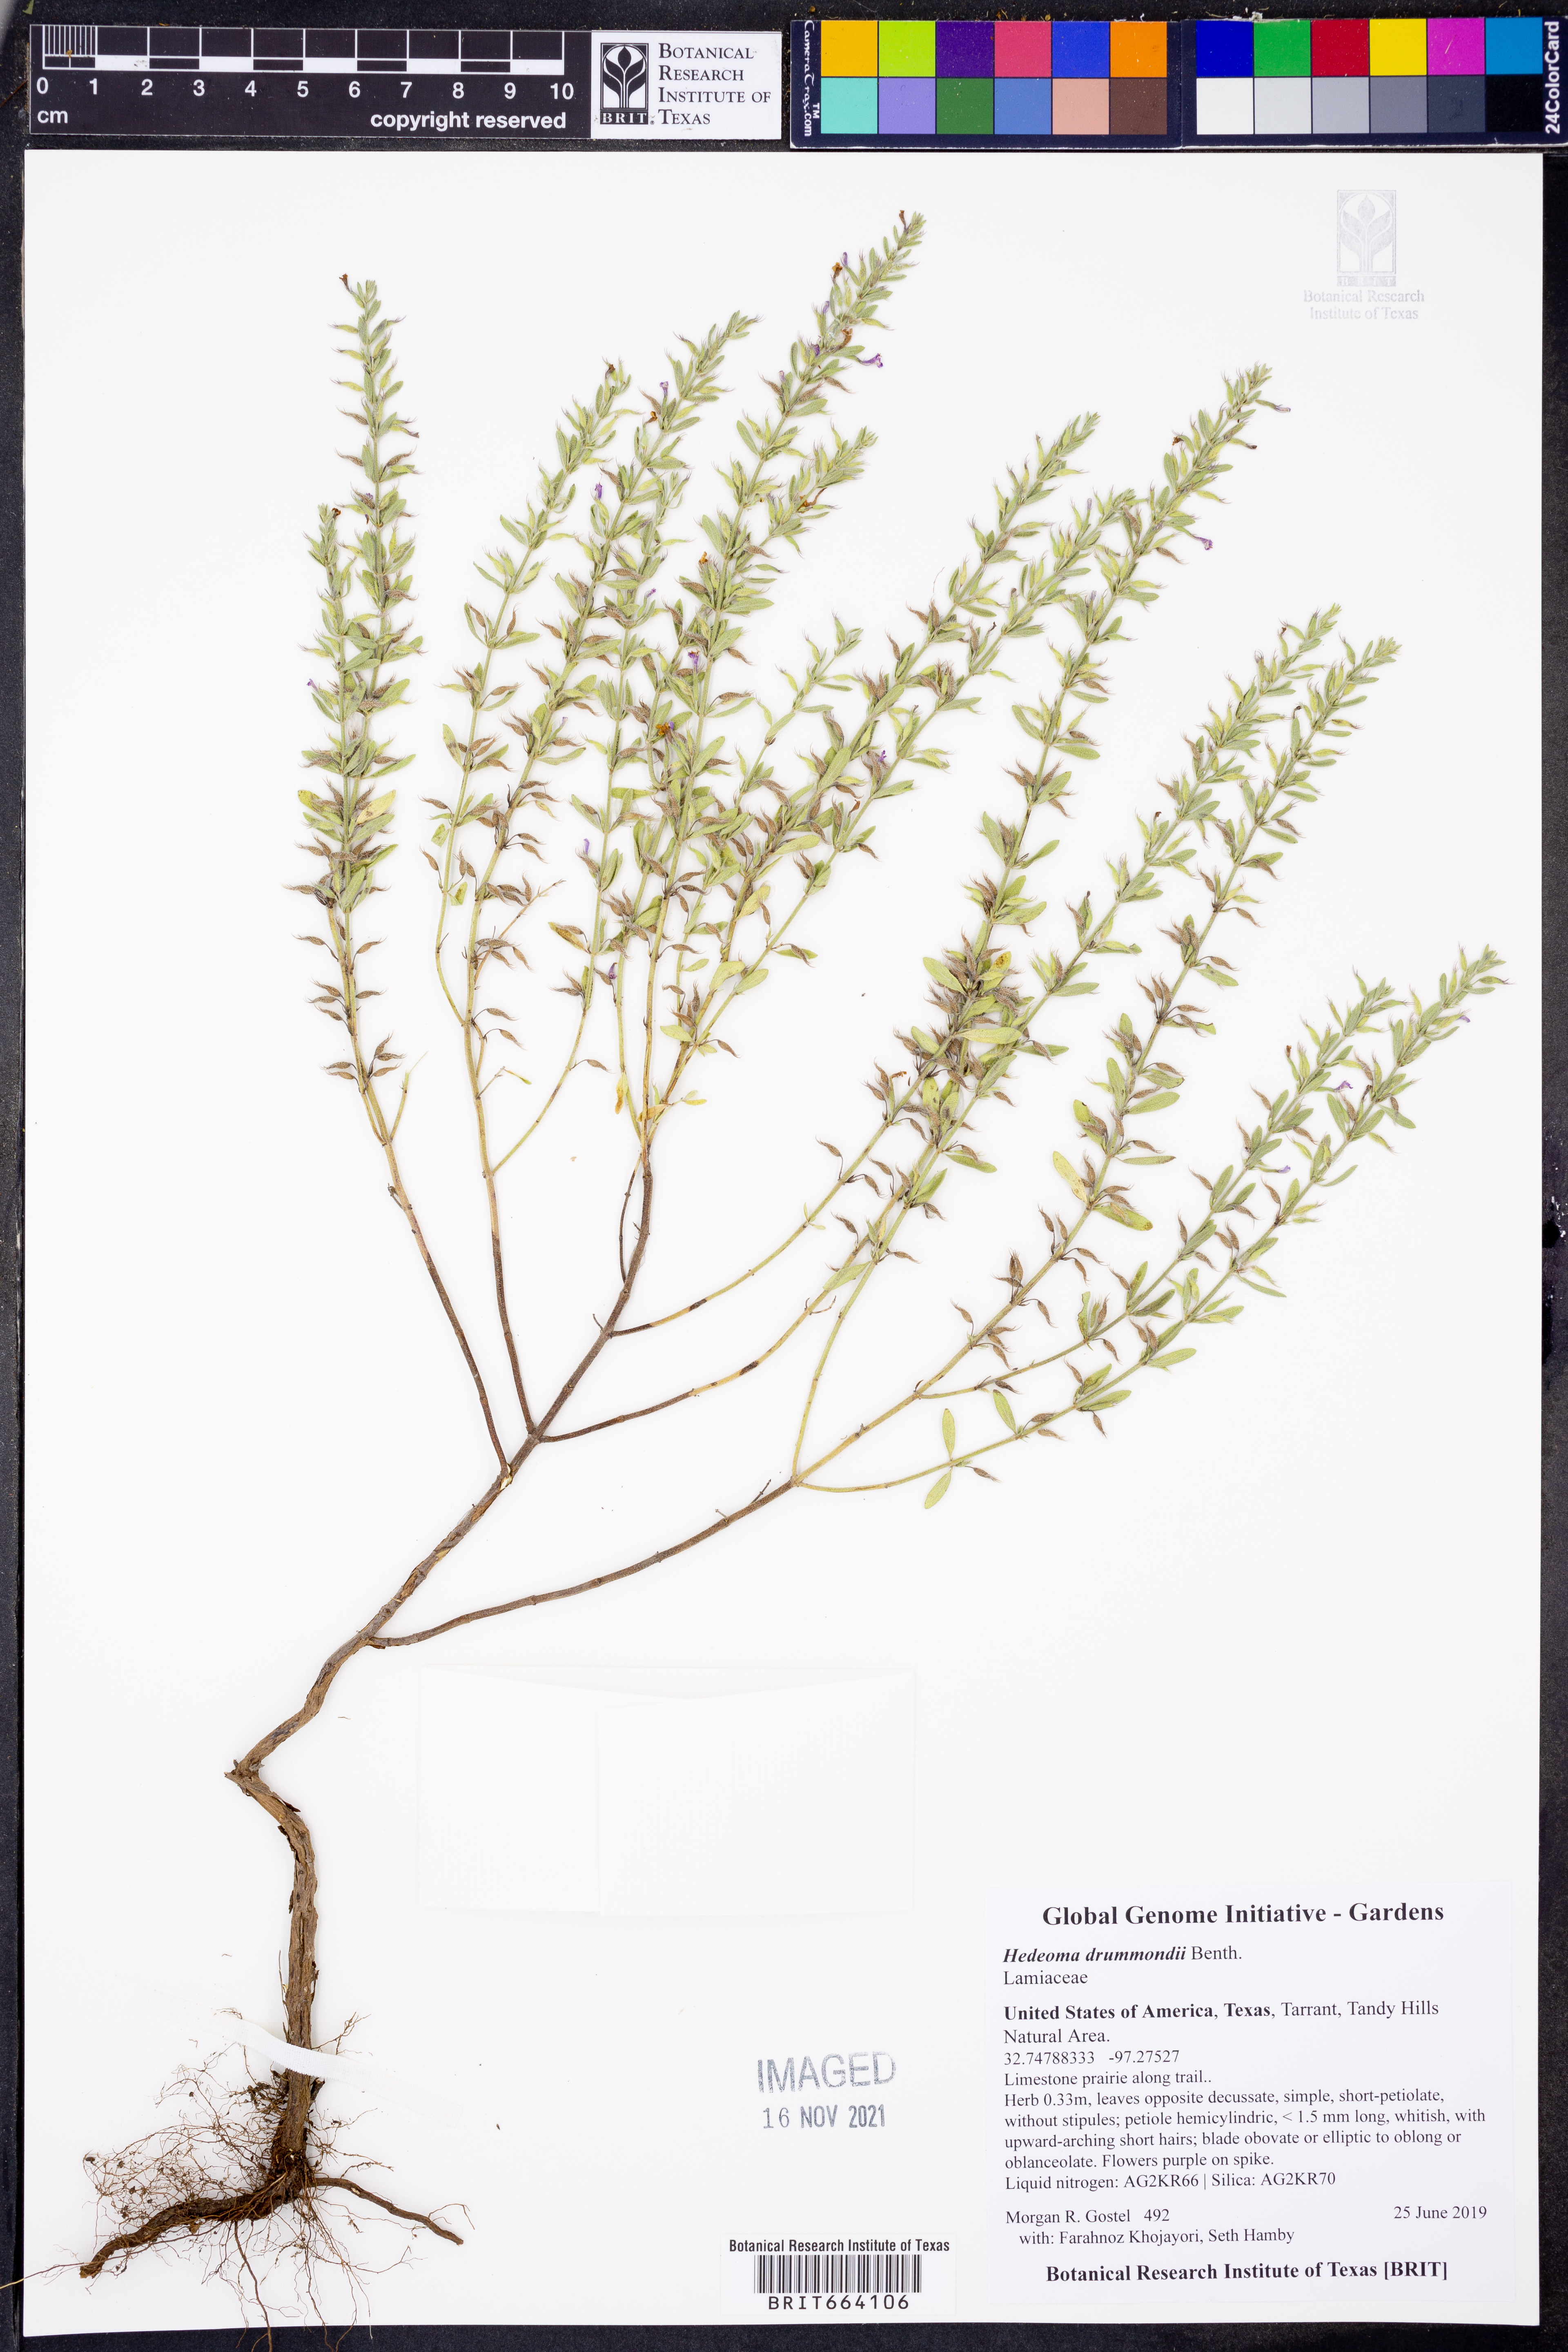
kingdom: Plantae
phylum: Tracheophyta
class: Magnoliopsida
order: Lamiales
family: Lamiaceae
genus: Hedeoma
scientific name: Hedeoma drummondii
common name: New mexico pennyroyal
